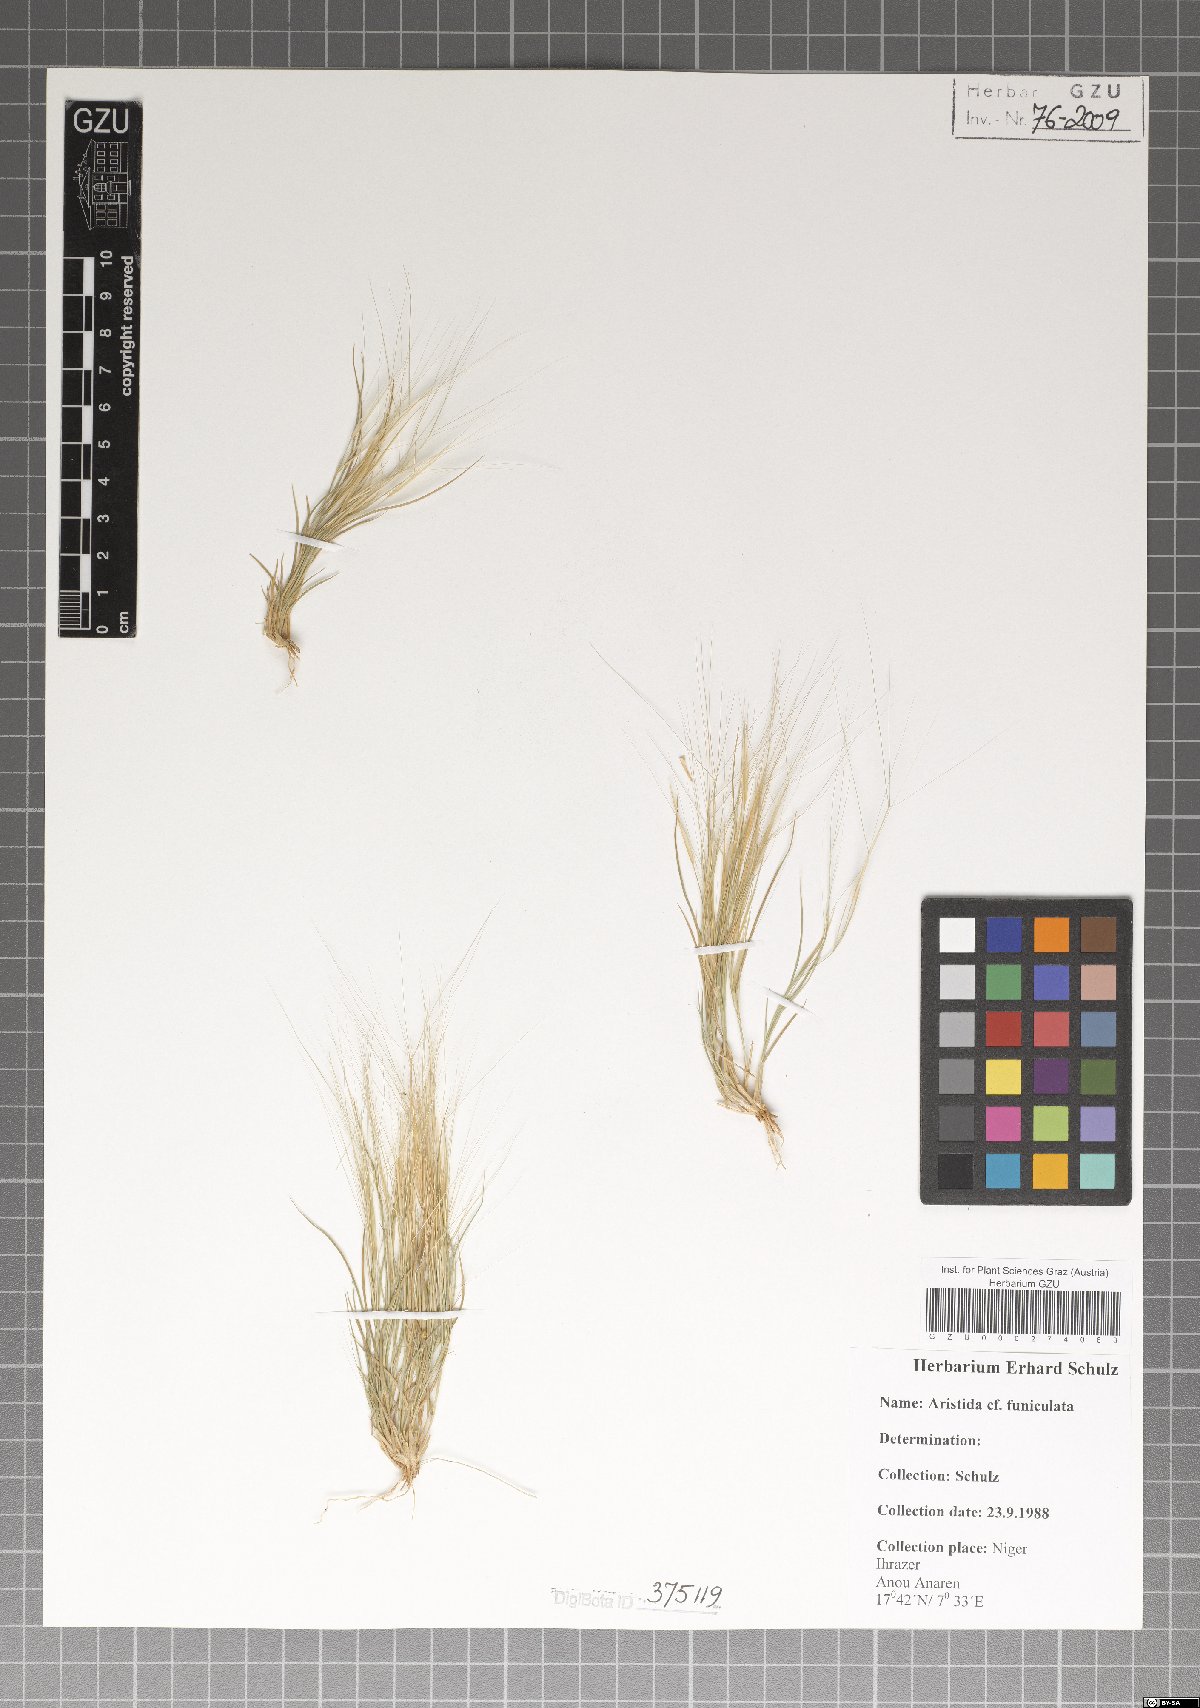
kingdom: Plantae
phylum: Tracheophyta
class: Liliopsida
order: Poales
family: Poaceae
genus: Aristida
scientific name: Aristida funiculata
